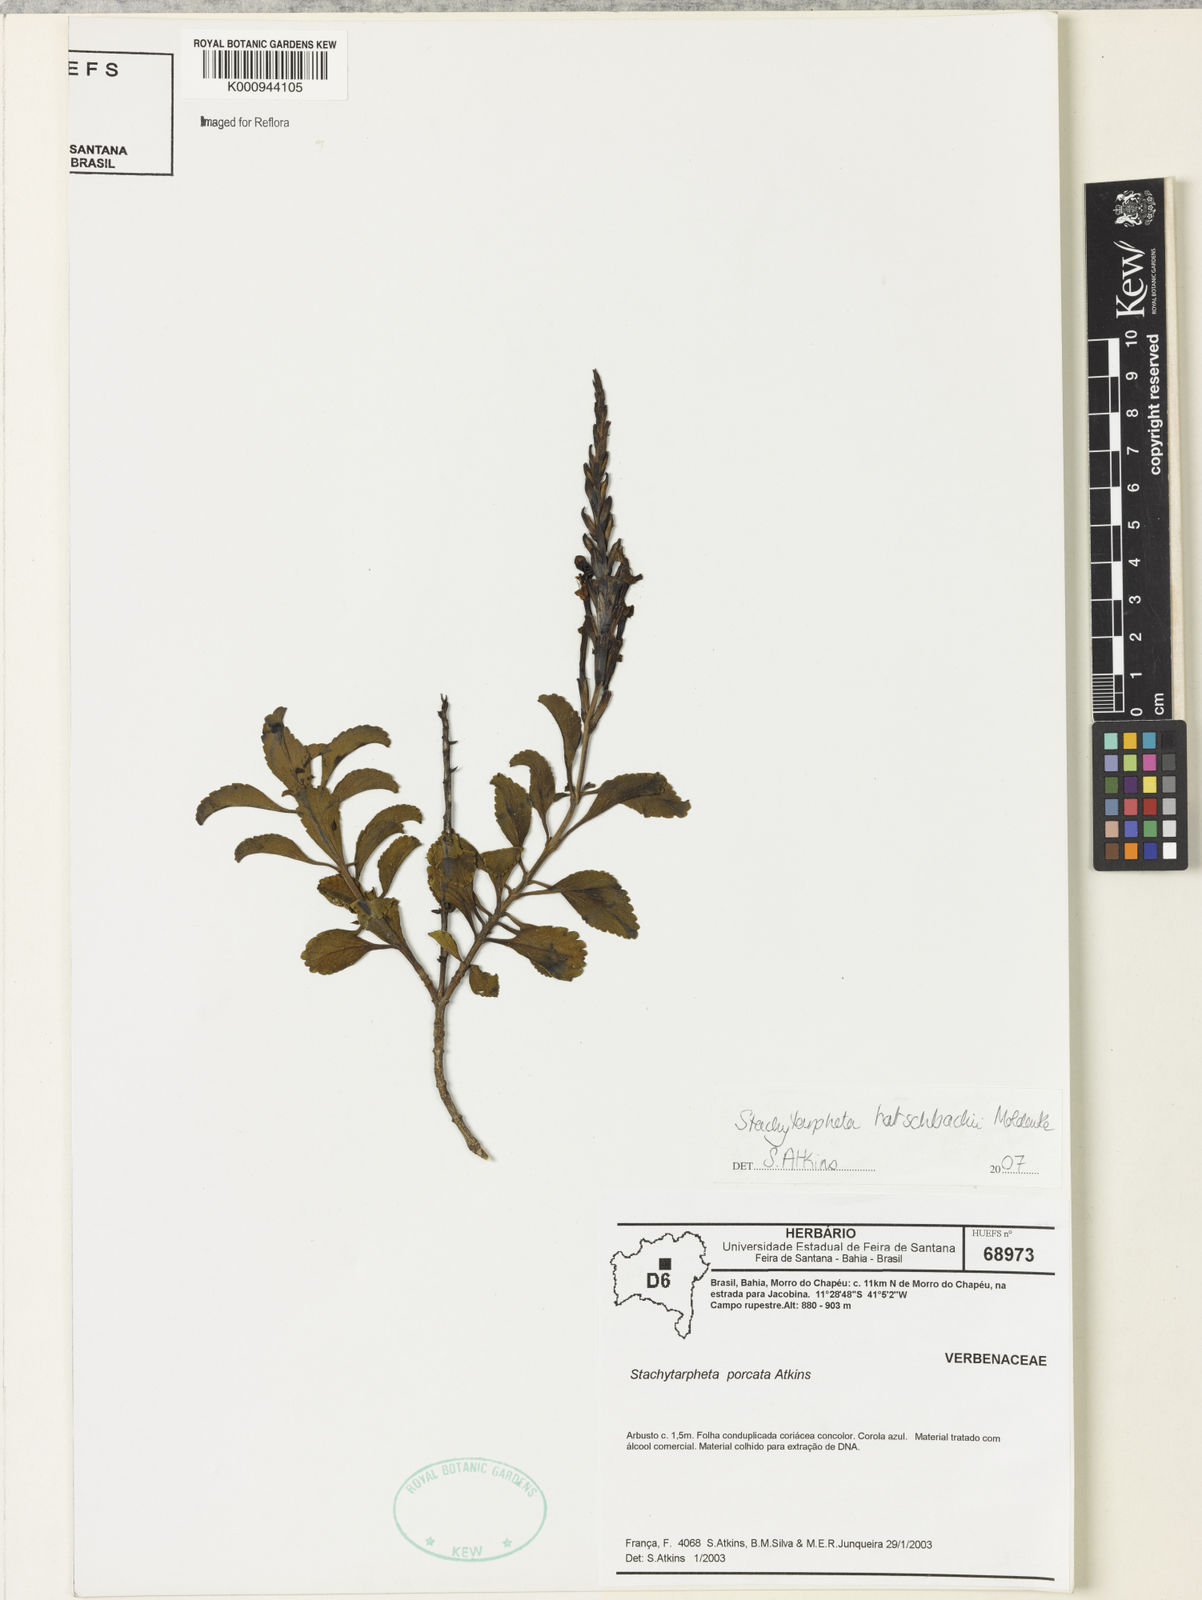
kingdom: Plantae
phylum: Tracheophyta
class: Magnoliopsida
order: Lamiales
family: Verbenaceae
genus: Stachytarpheta
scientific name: Stachytarpheta hatschbachii
